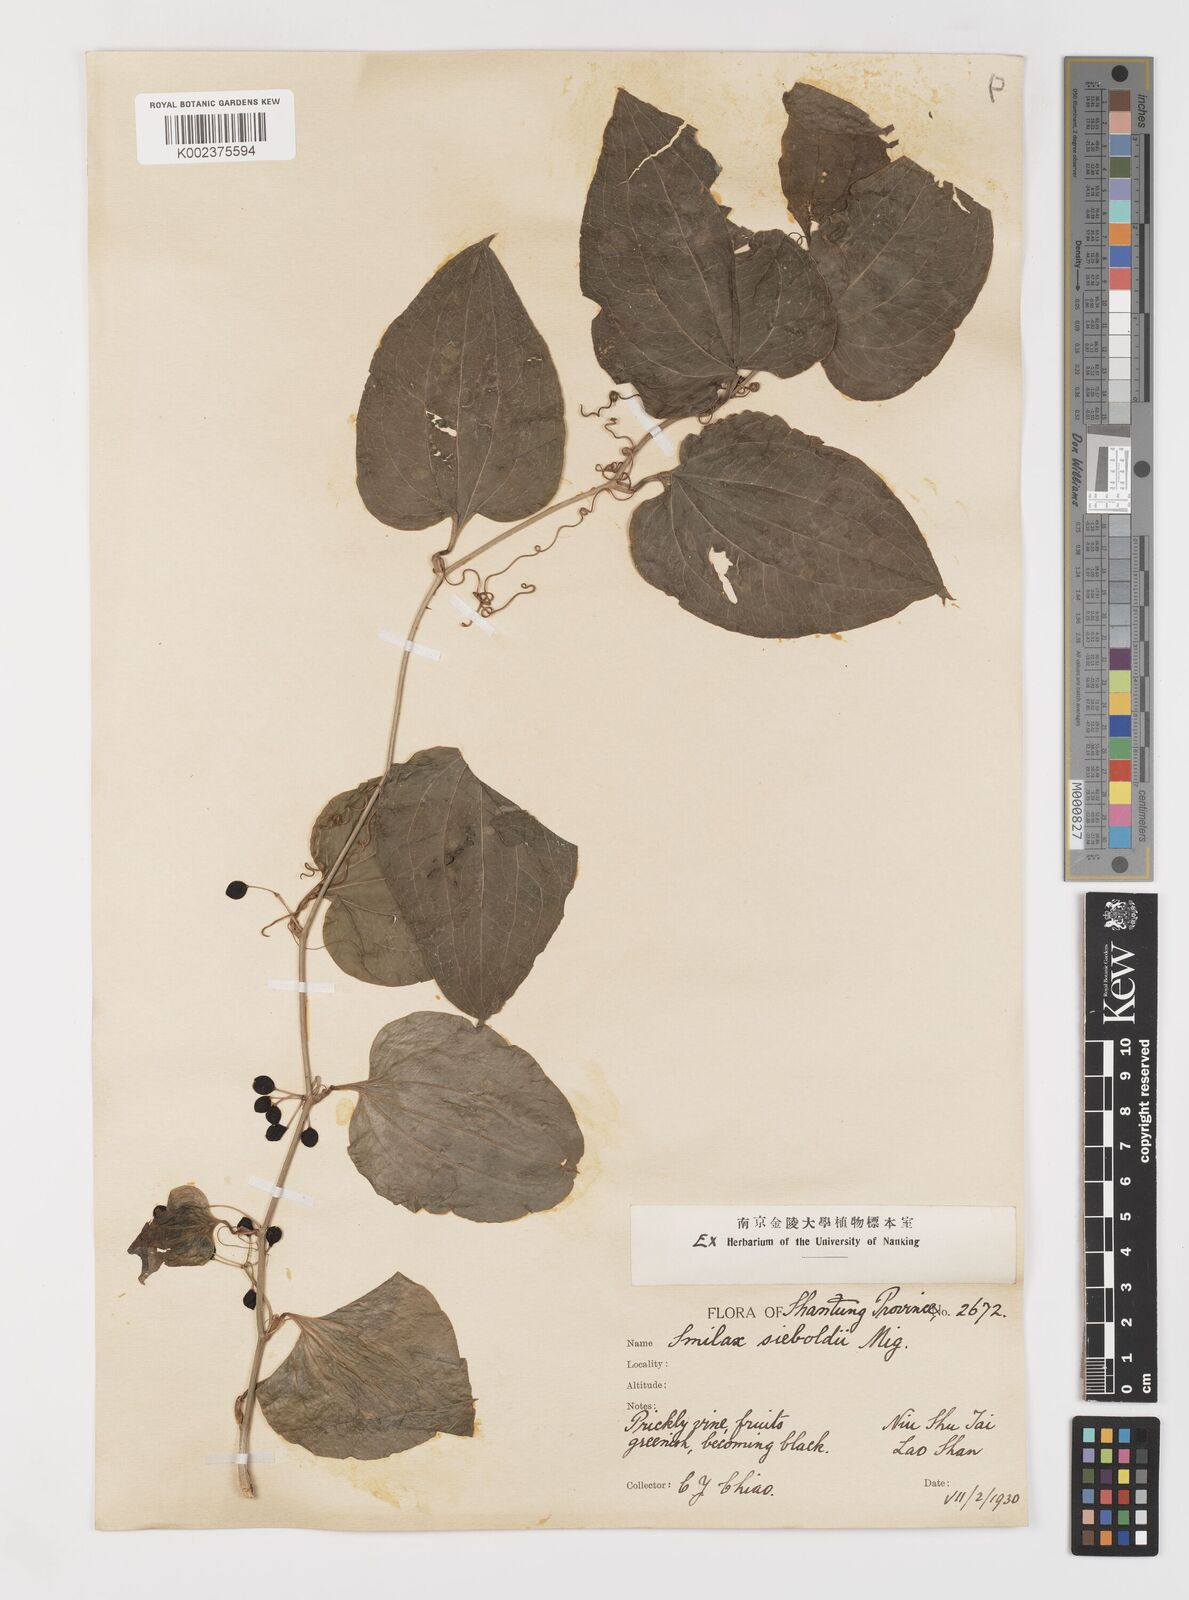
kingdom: Plantae
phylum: Tracheophyta
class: Liliopsida
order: Liliales
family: Smilacaceae
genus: Smilax
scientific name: Smilax sieboldii
